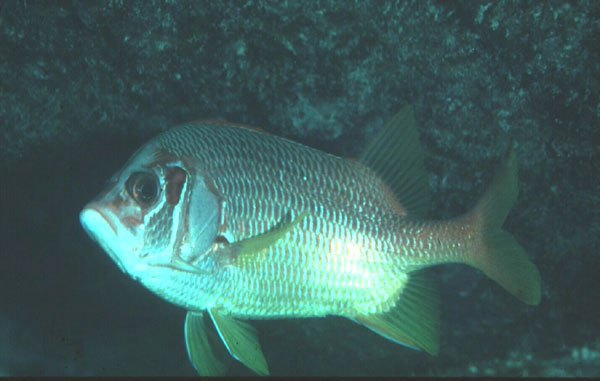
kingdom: Animalia
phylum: Chordata
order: Beryciformes
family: Holocentridae
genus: Sargocentron
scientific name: Sargocentron spiniferum
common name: Giant squirrelfish
